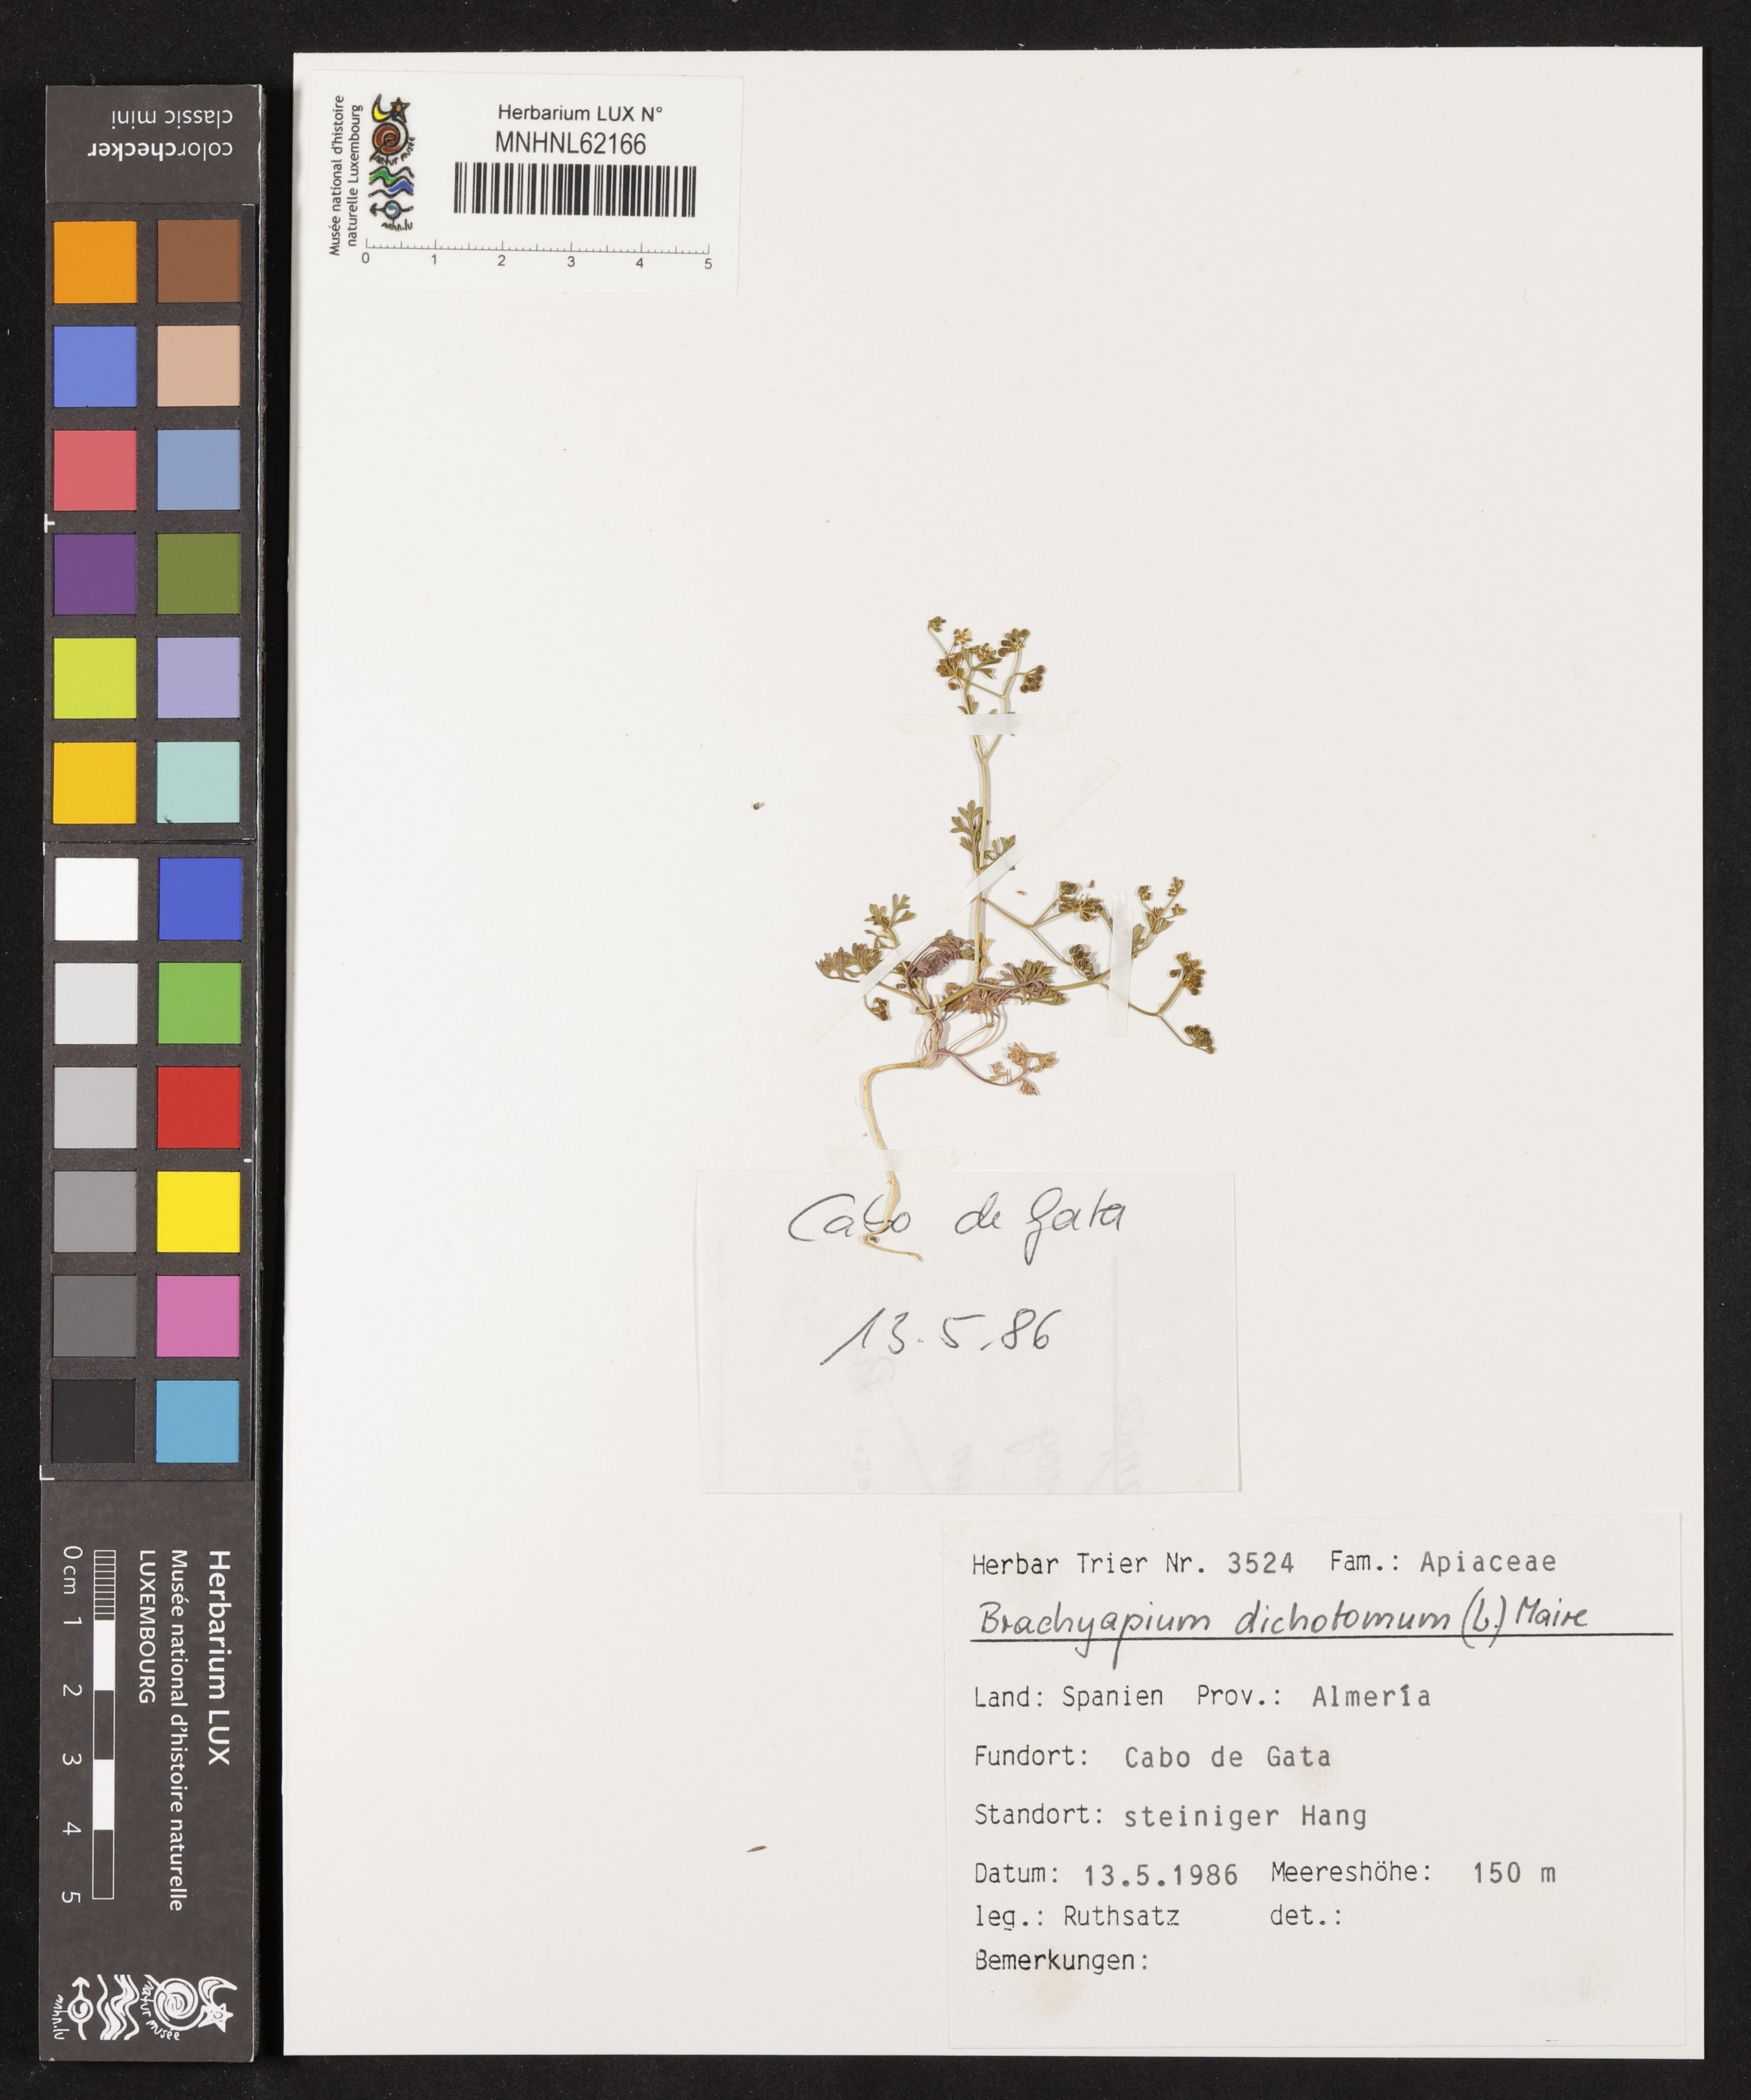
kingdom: Plantae
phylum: Tracheophyta
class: Magnoliopsida
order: Apiales
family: Apiaceae
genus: Stoibrax
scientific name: Stoibrax dichotomum
